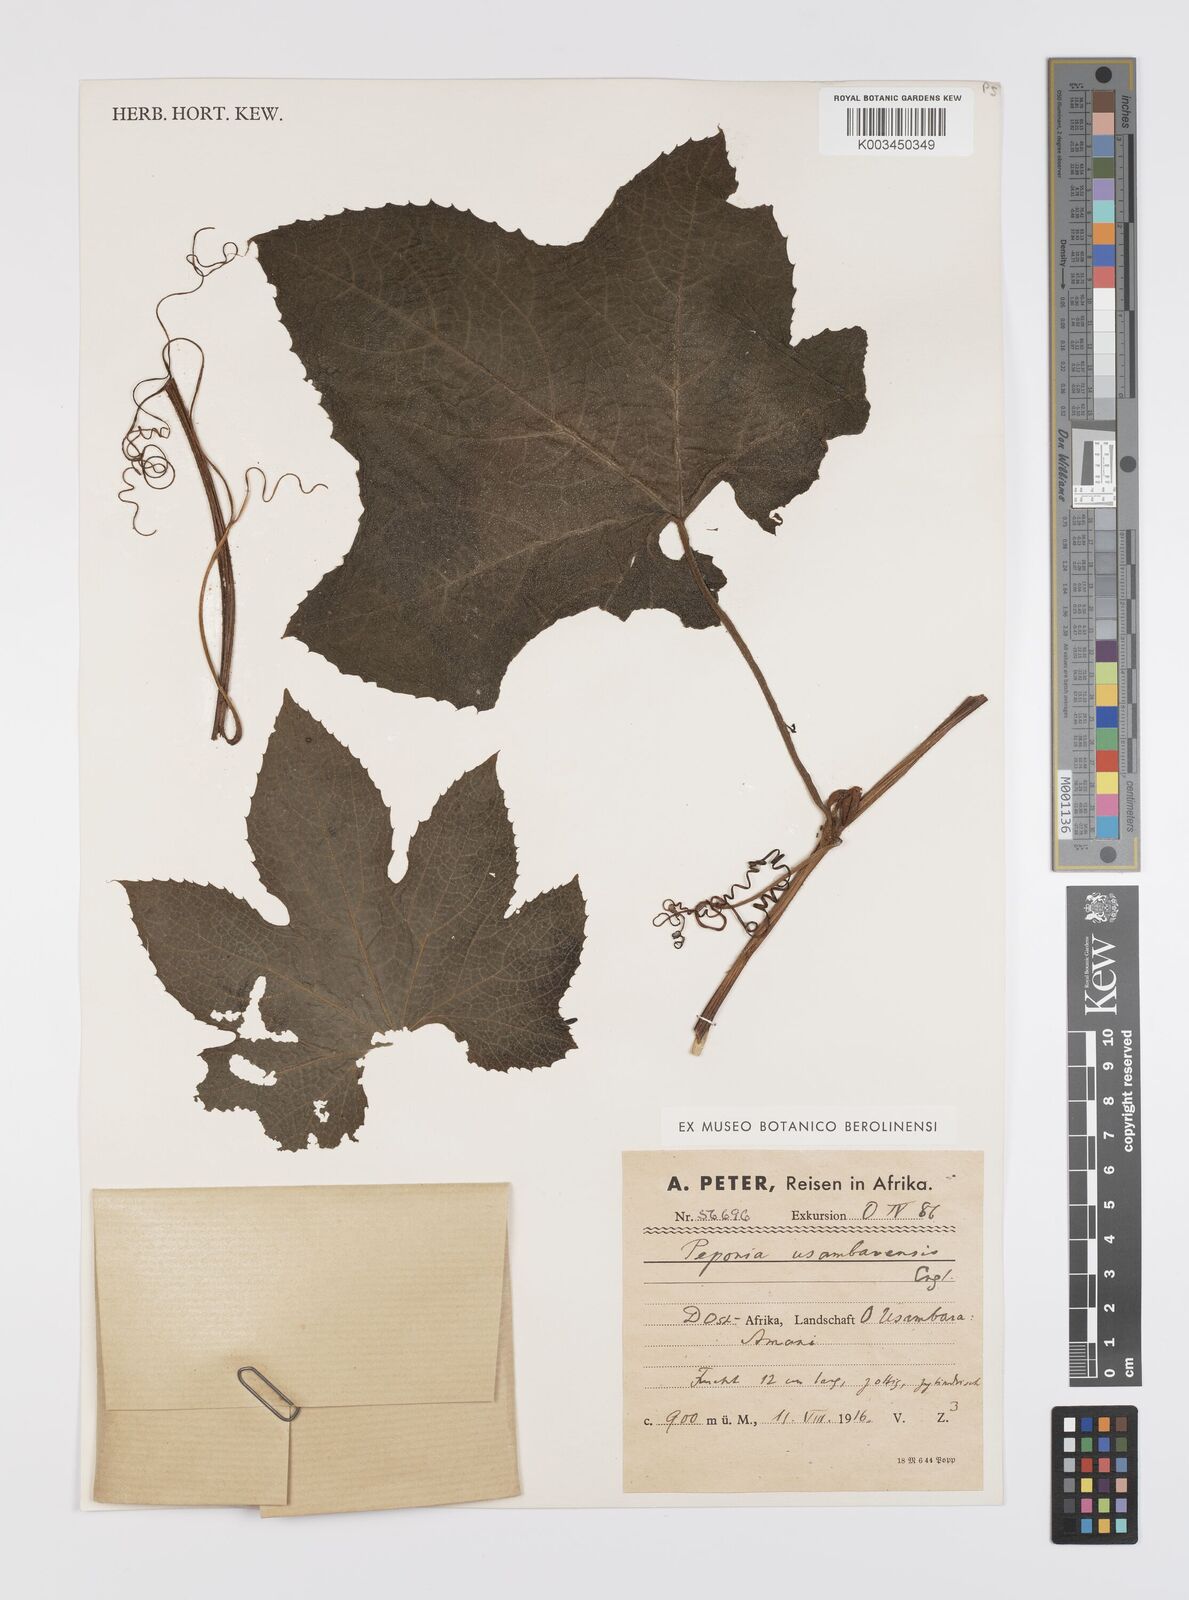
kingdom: Plantae
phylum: Tracheophyta
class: Magnoliopsida
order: Cucurbitales
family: Cucurbitaceae
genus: Peponium
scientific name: Peponium vogelii
